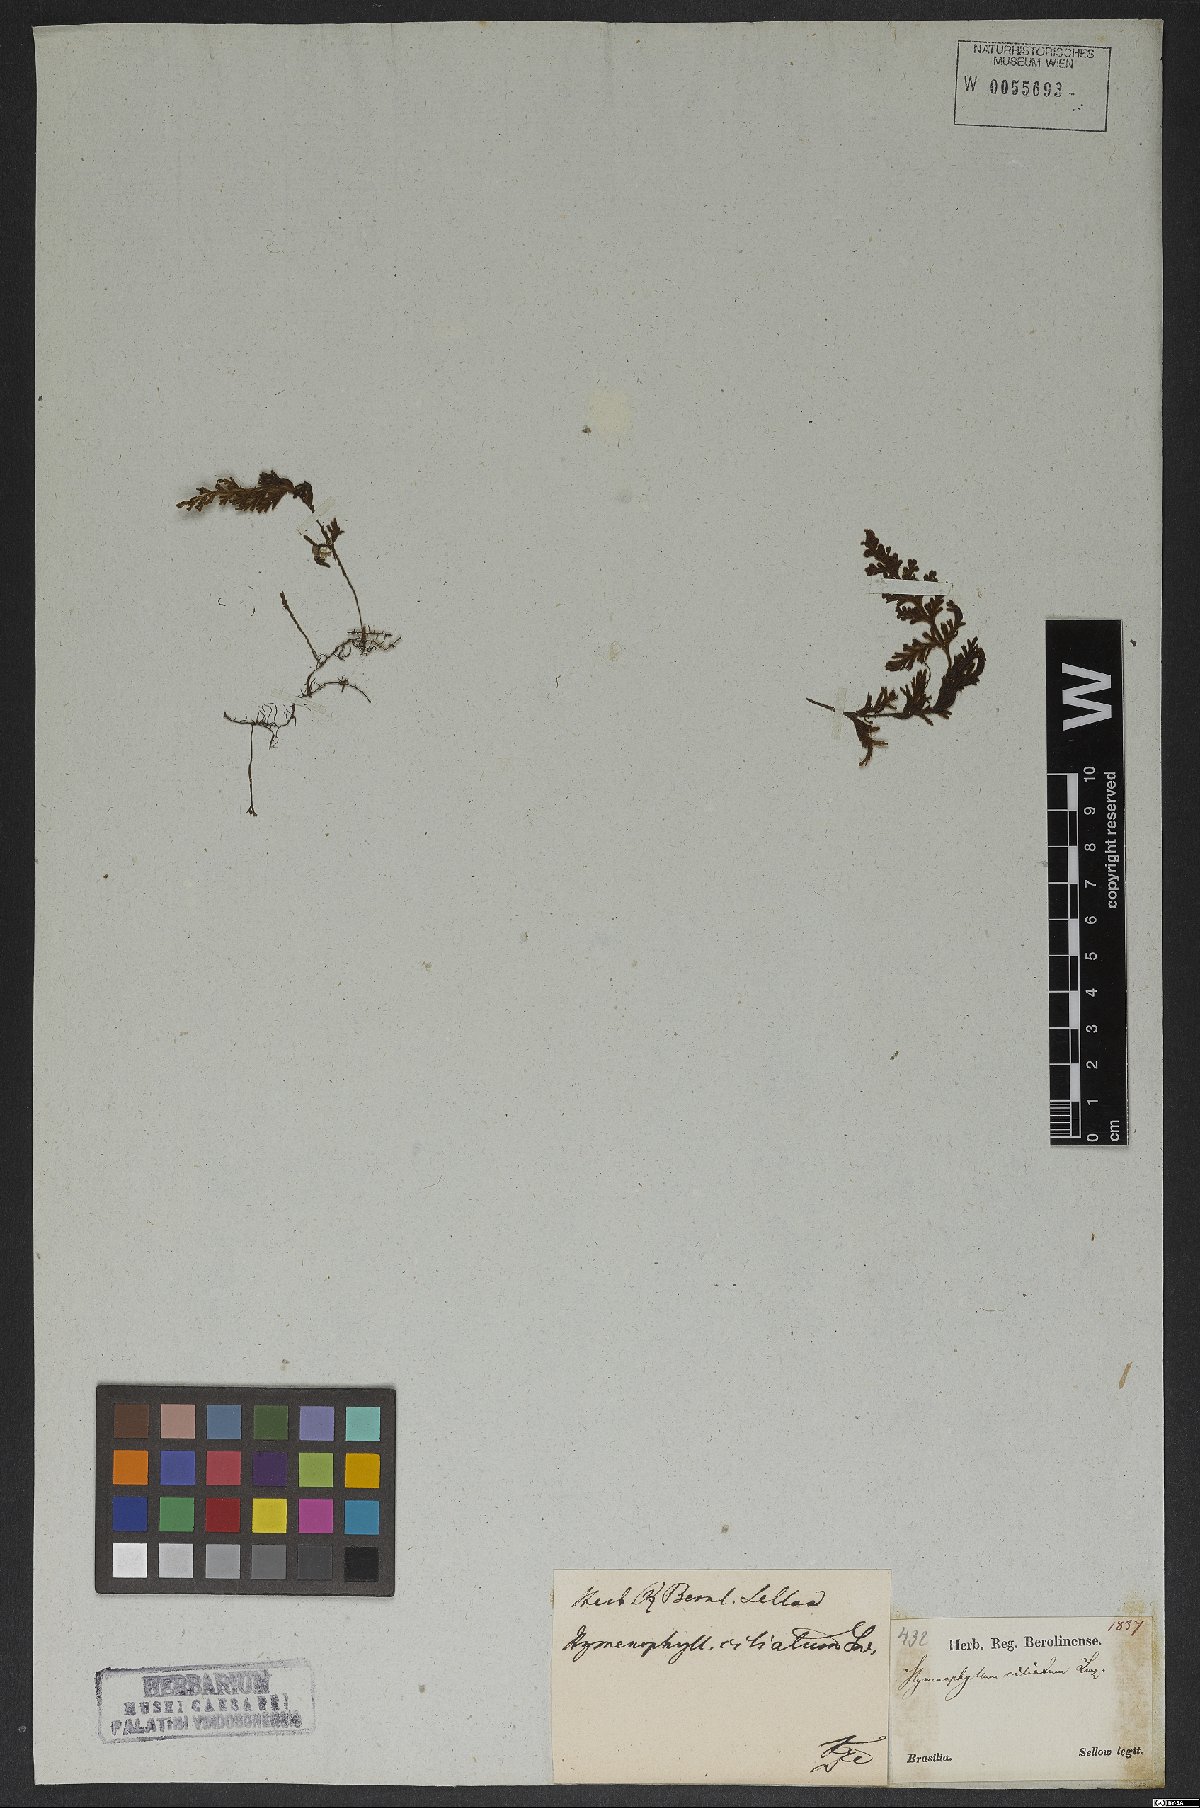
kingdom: Plantae
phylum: Tracheophyta
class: Polypodiopsida
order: Hymenophyllales
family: Hymenophyllaceae
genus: Hymenophyllum
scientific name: Hymenophyllum asplenioides
